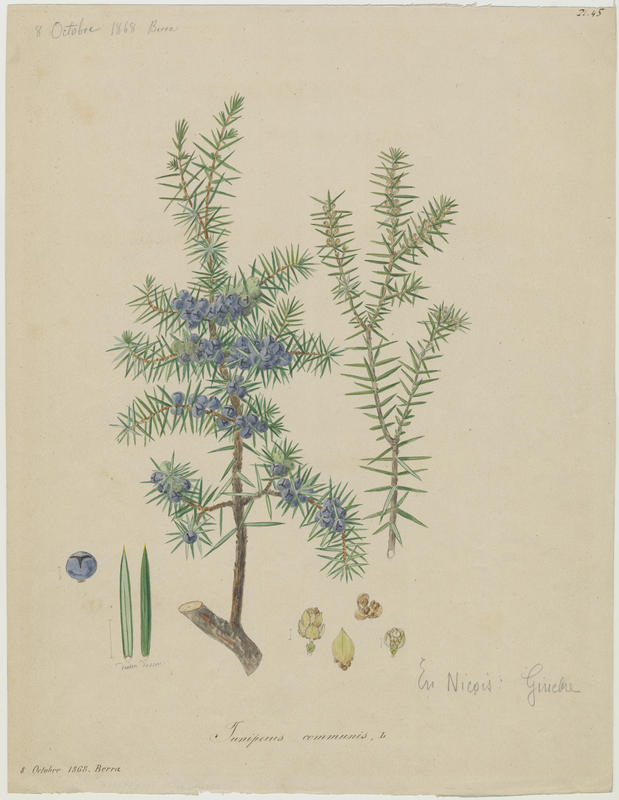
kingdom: Plantae
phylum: Tracheophyta
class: Pinopsida
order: Pinales
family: Cupressaceae
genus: Juniperus
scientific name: Juniperus communis
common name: Common juniper
